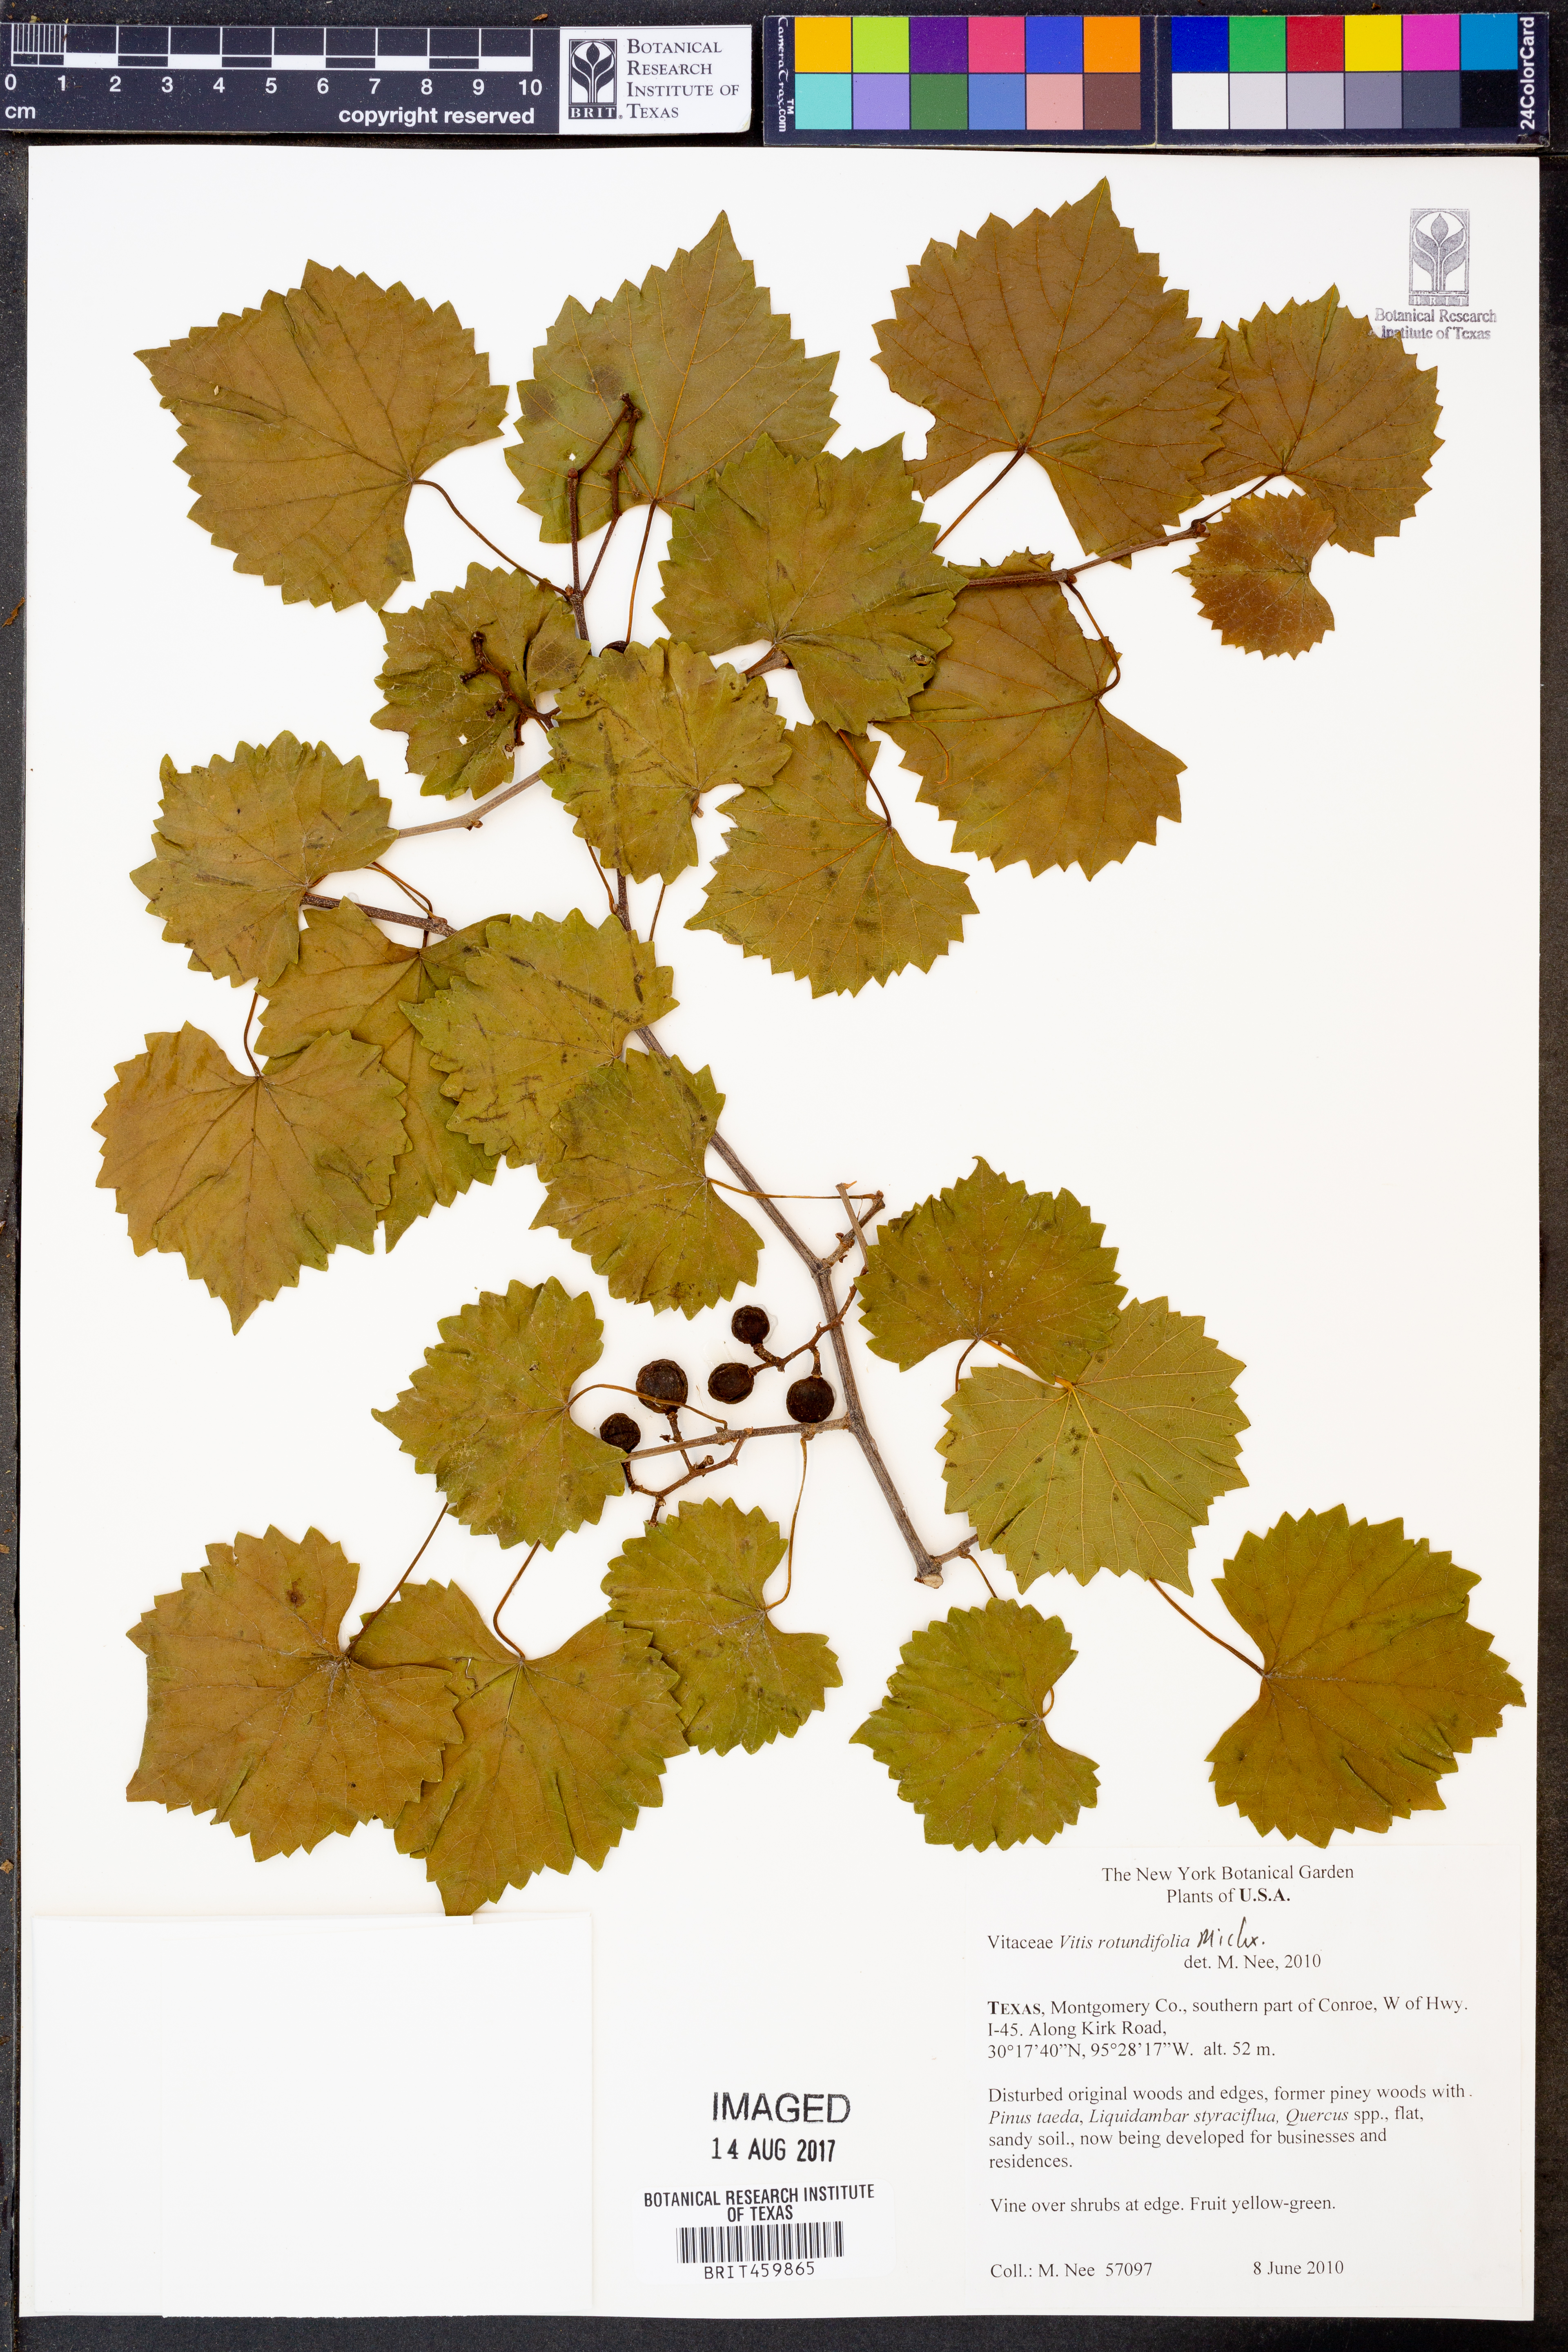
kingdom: Plantae
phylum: Tracheophyta
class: Magnoliopsida
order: Vitales
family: Vitaceae
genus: Vitis
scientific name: Vitis rotundifolia
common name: Muscadine grape
